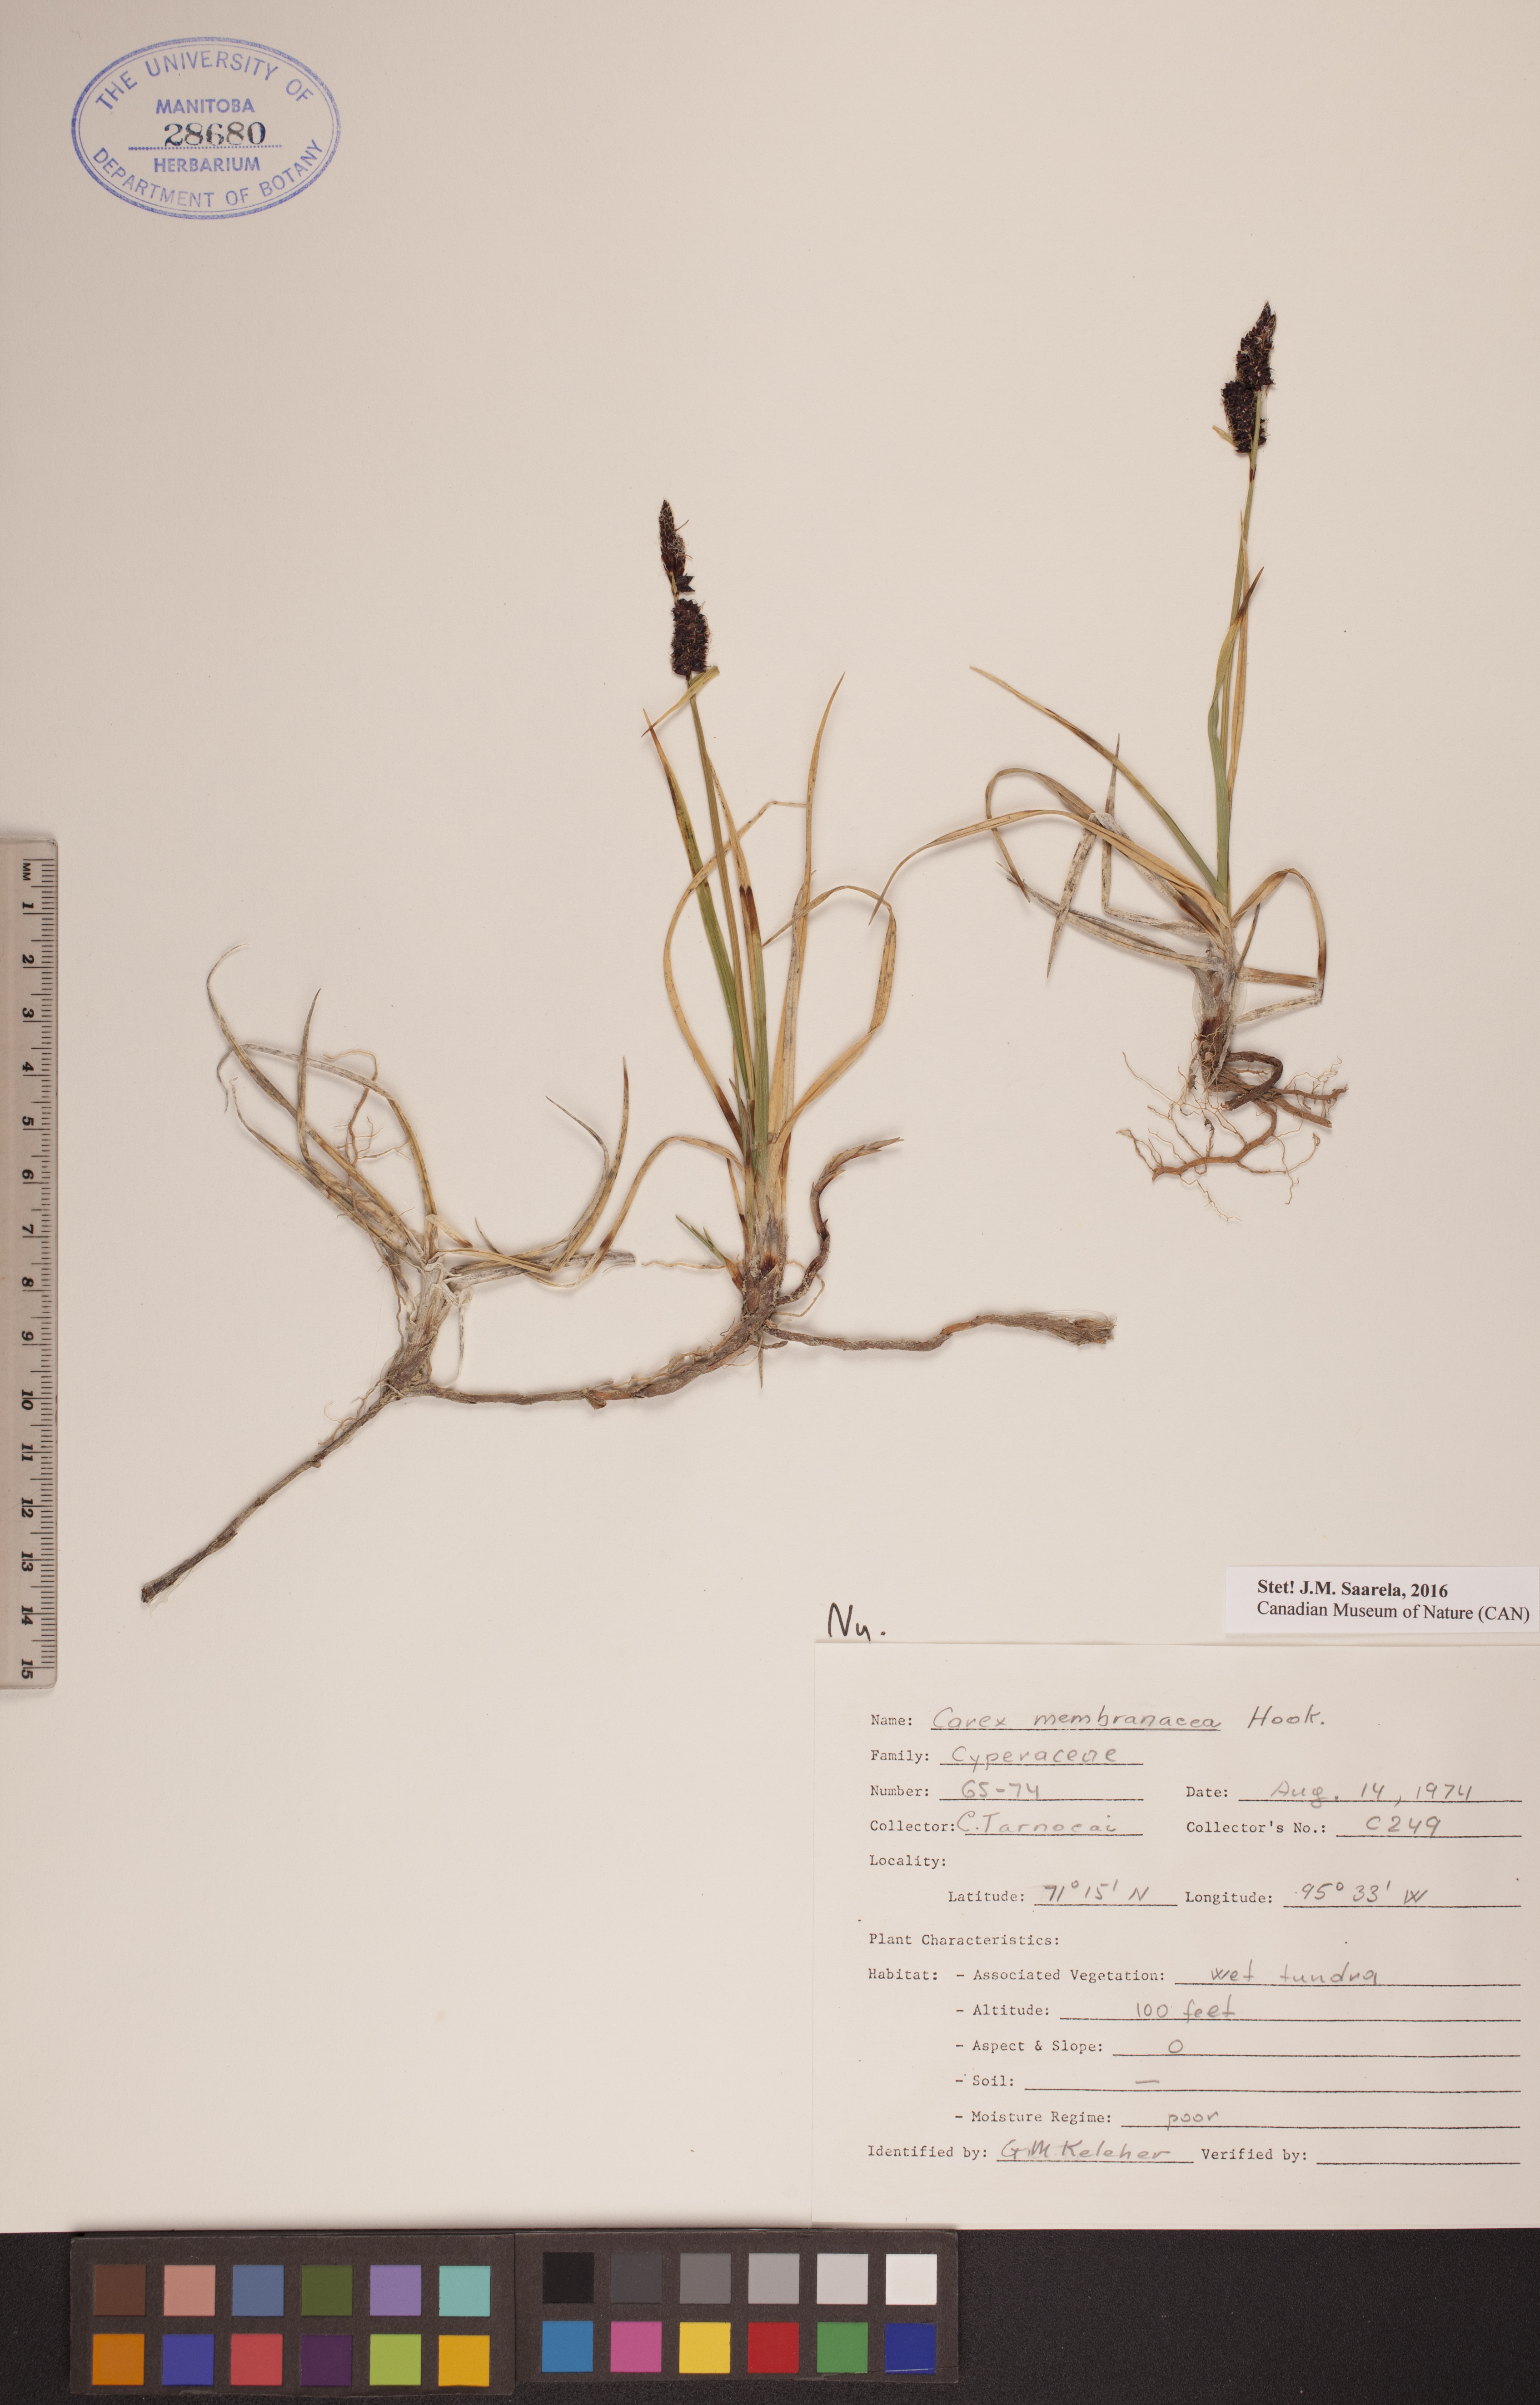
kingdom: Plantae
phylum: Tracheophyta
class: Liliopsida
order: Poales
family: Cyperaceae
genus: Carex
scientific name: Carex membranacea
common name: Fragile sedge
